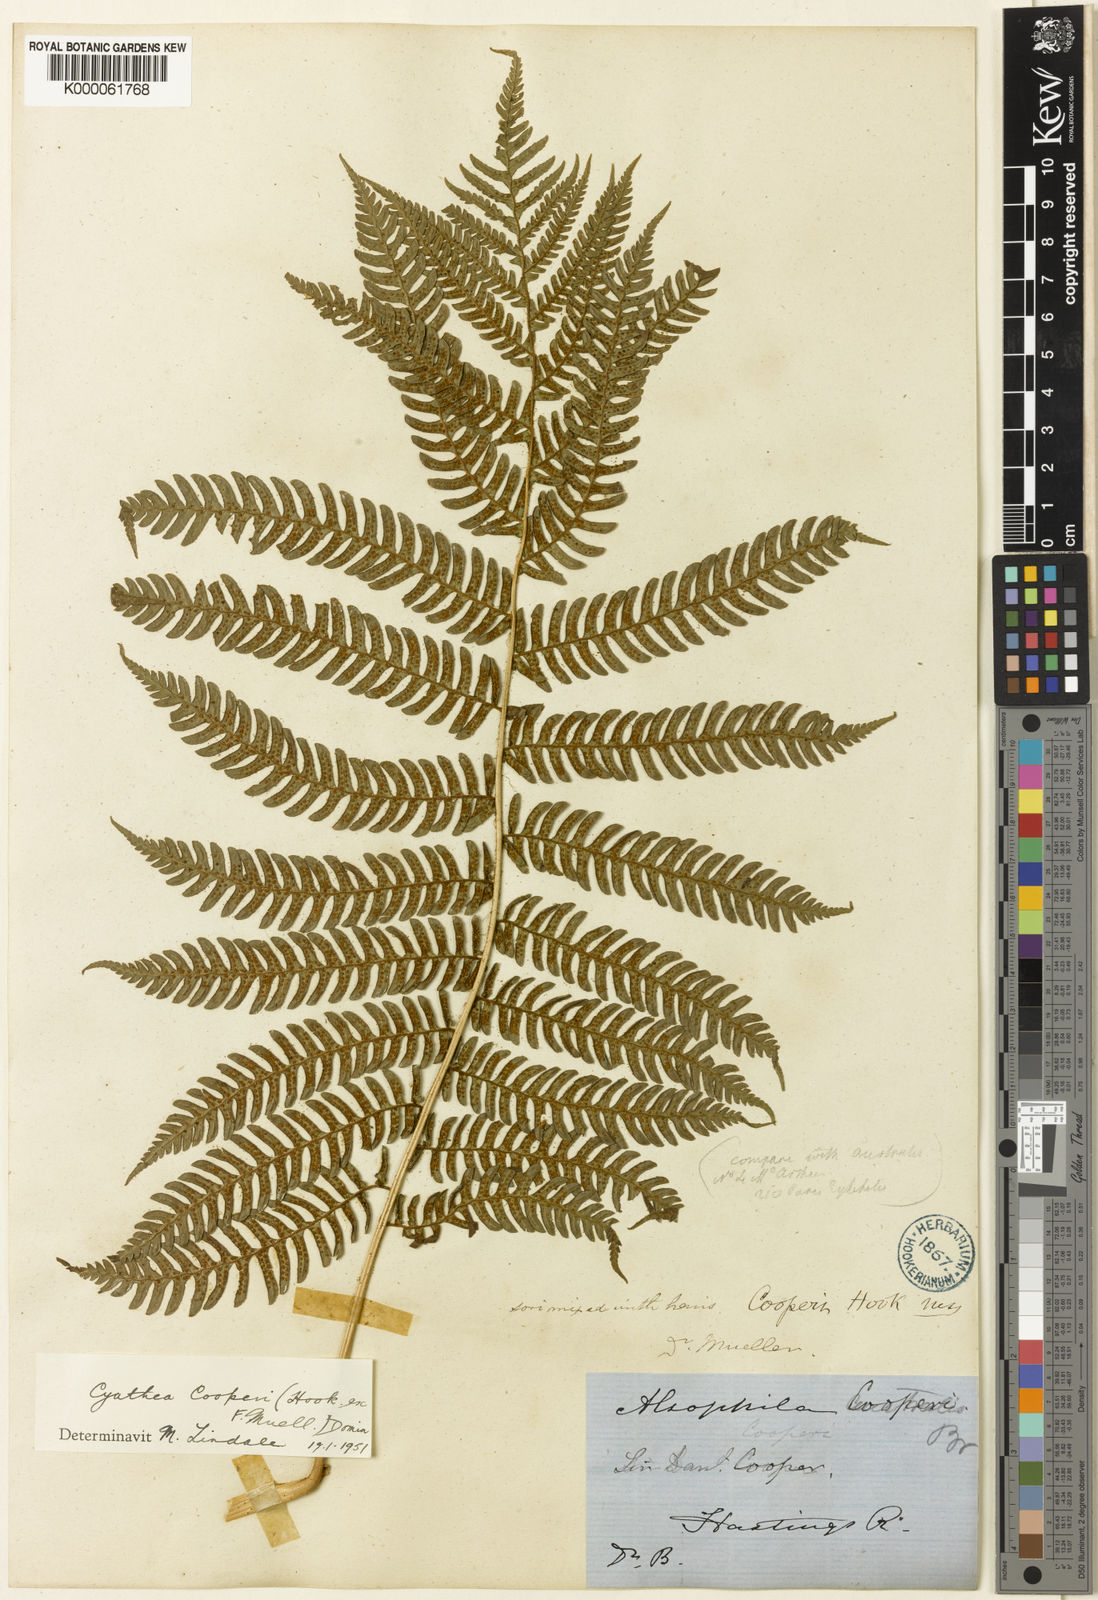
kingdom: Plantae
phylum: Tracheophyta
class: Polypodiopsida
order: Cyatheales
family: Cyatheaceae
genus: Sphaeropteris
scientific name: Sphaeropteris cooperi
